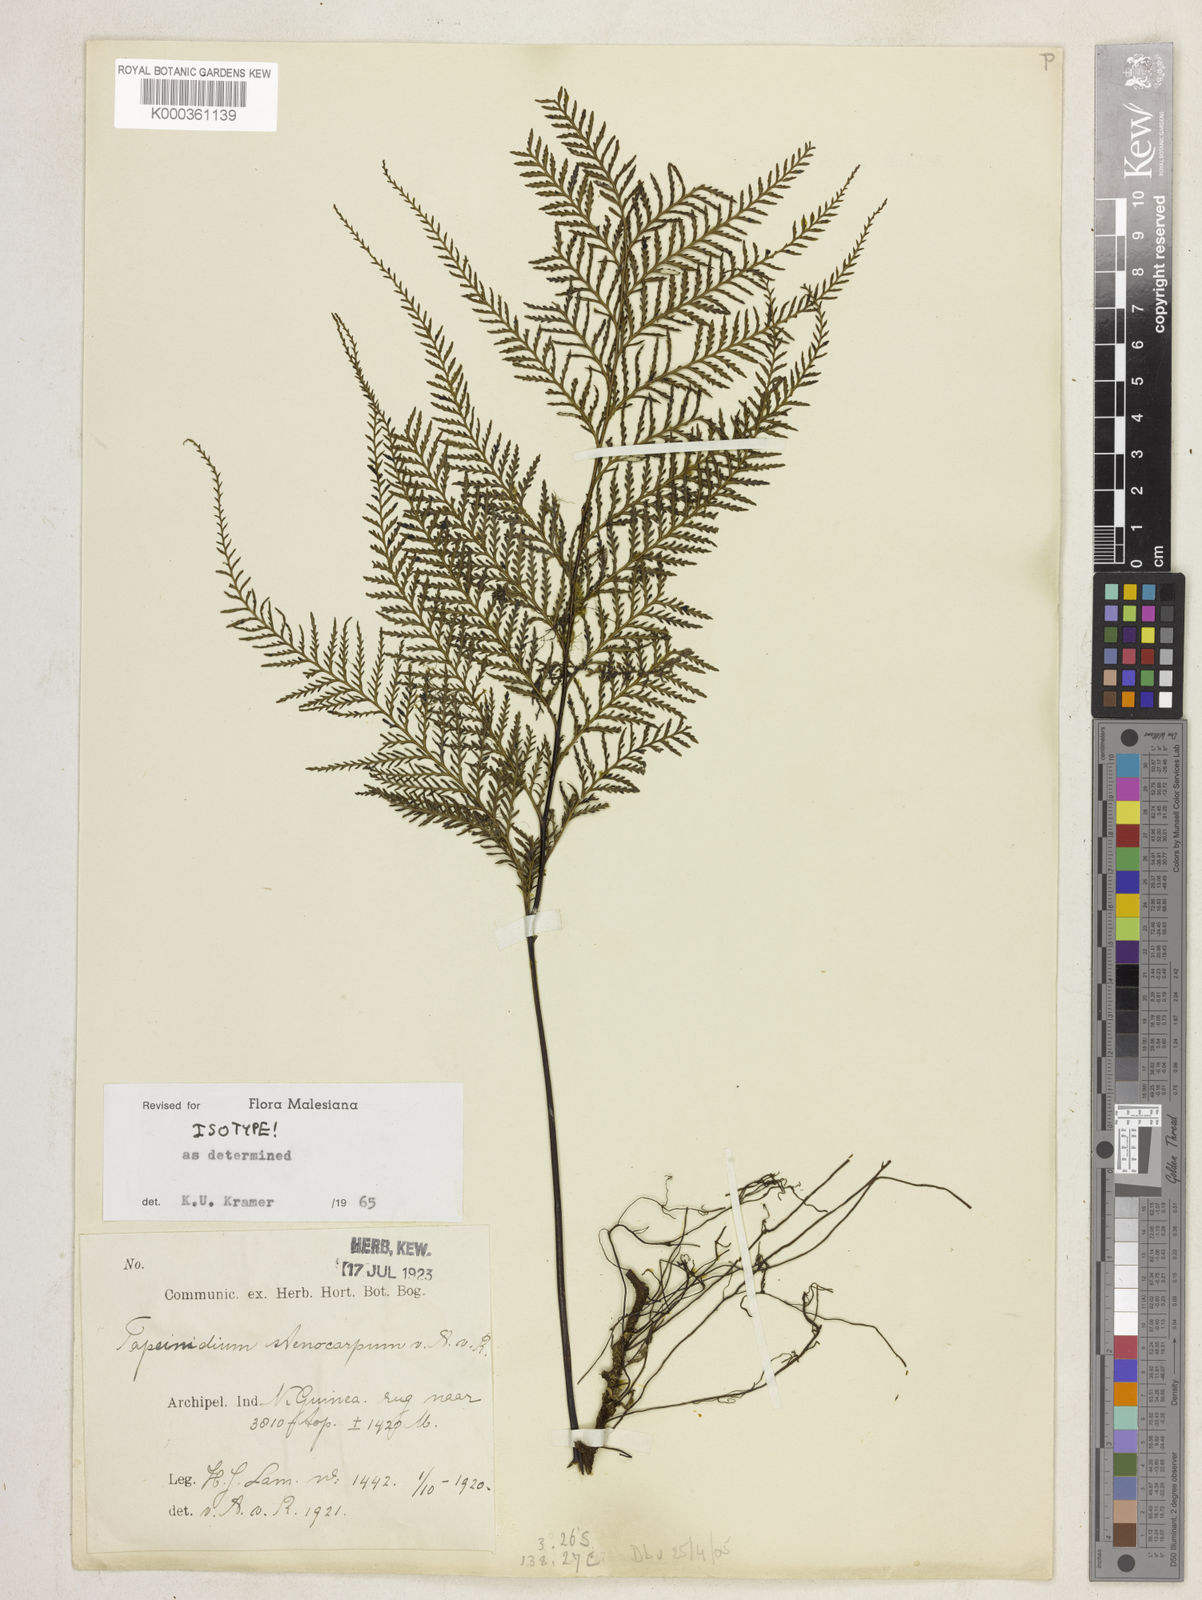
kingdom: Plantae
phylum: Tracheophyta
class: Polypodiopsida
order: Polypodiales
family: Lindsaeaceae
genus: Tapeinidium
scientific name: Tapeinidium stenocarpum
